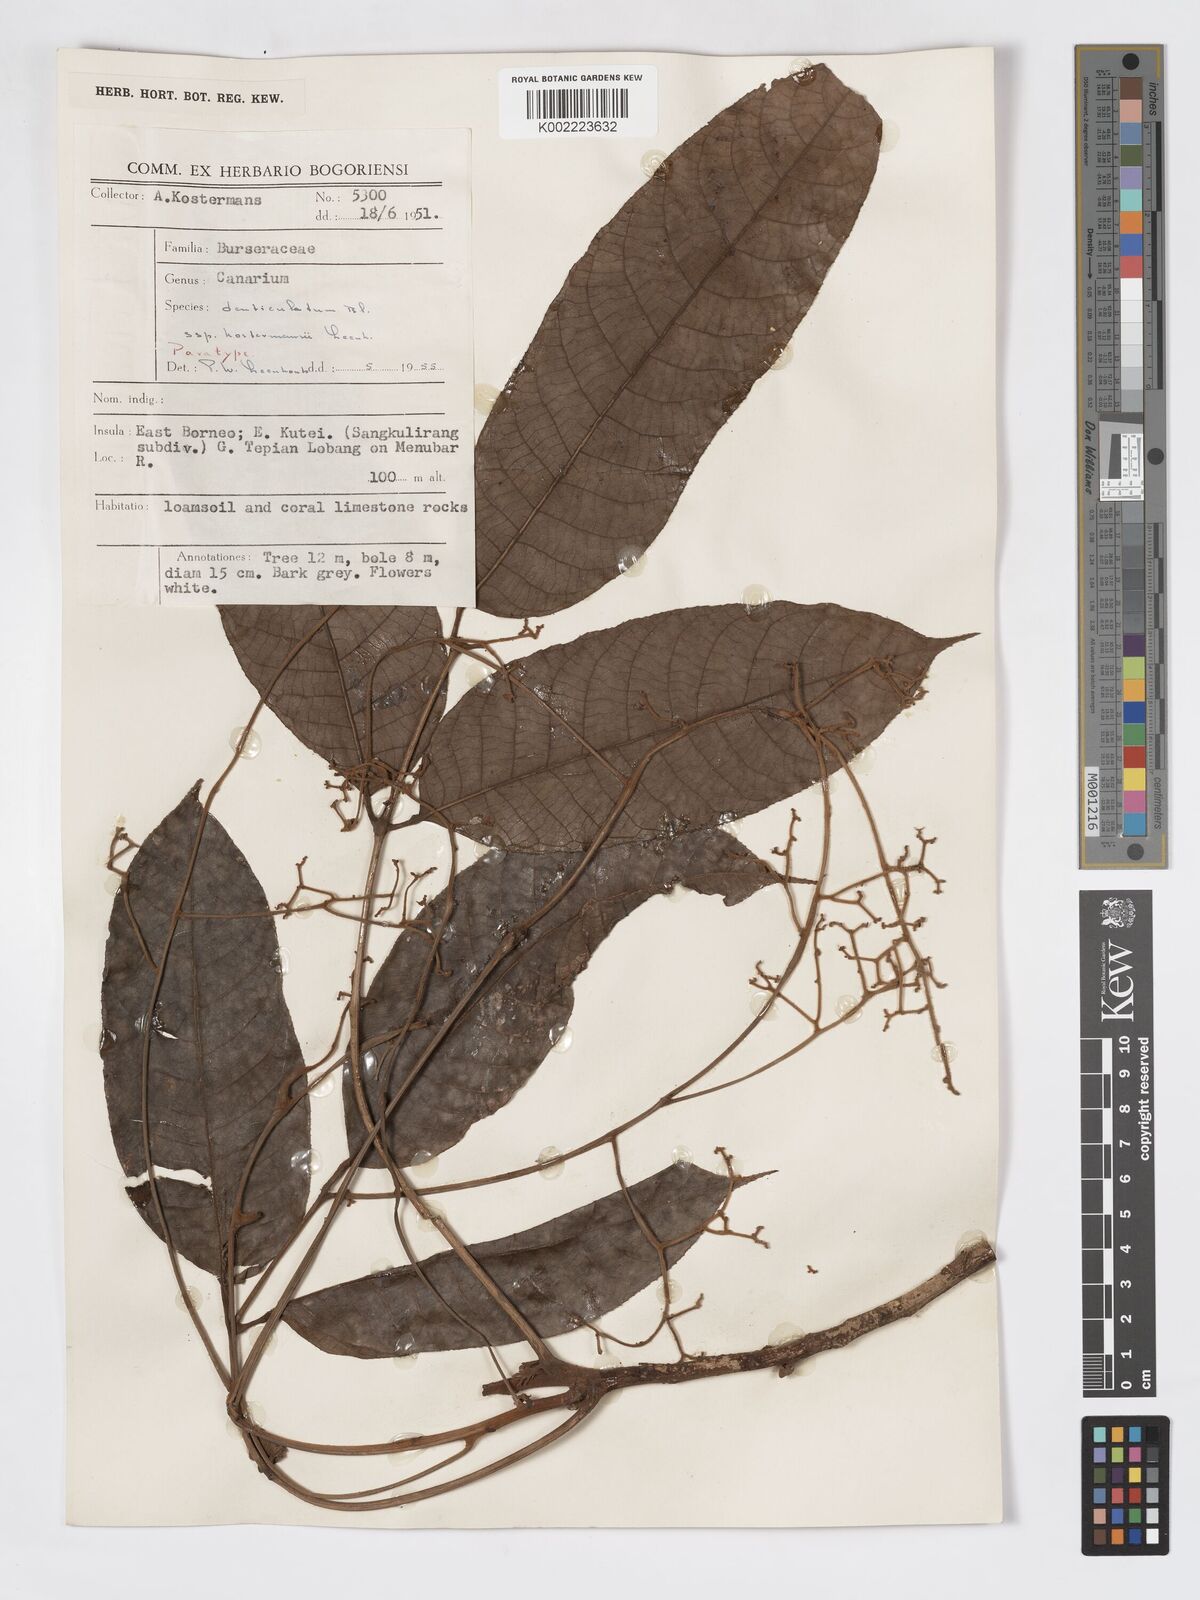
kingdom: Plantae
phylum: Tracheophyta
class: Magnoliopsida
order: Sapindales
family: Burseraceae
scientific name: Burseraceae
